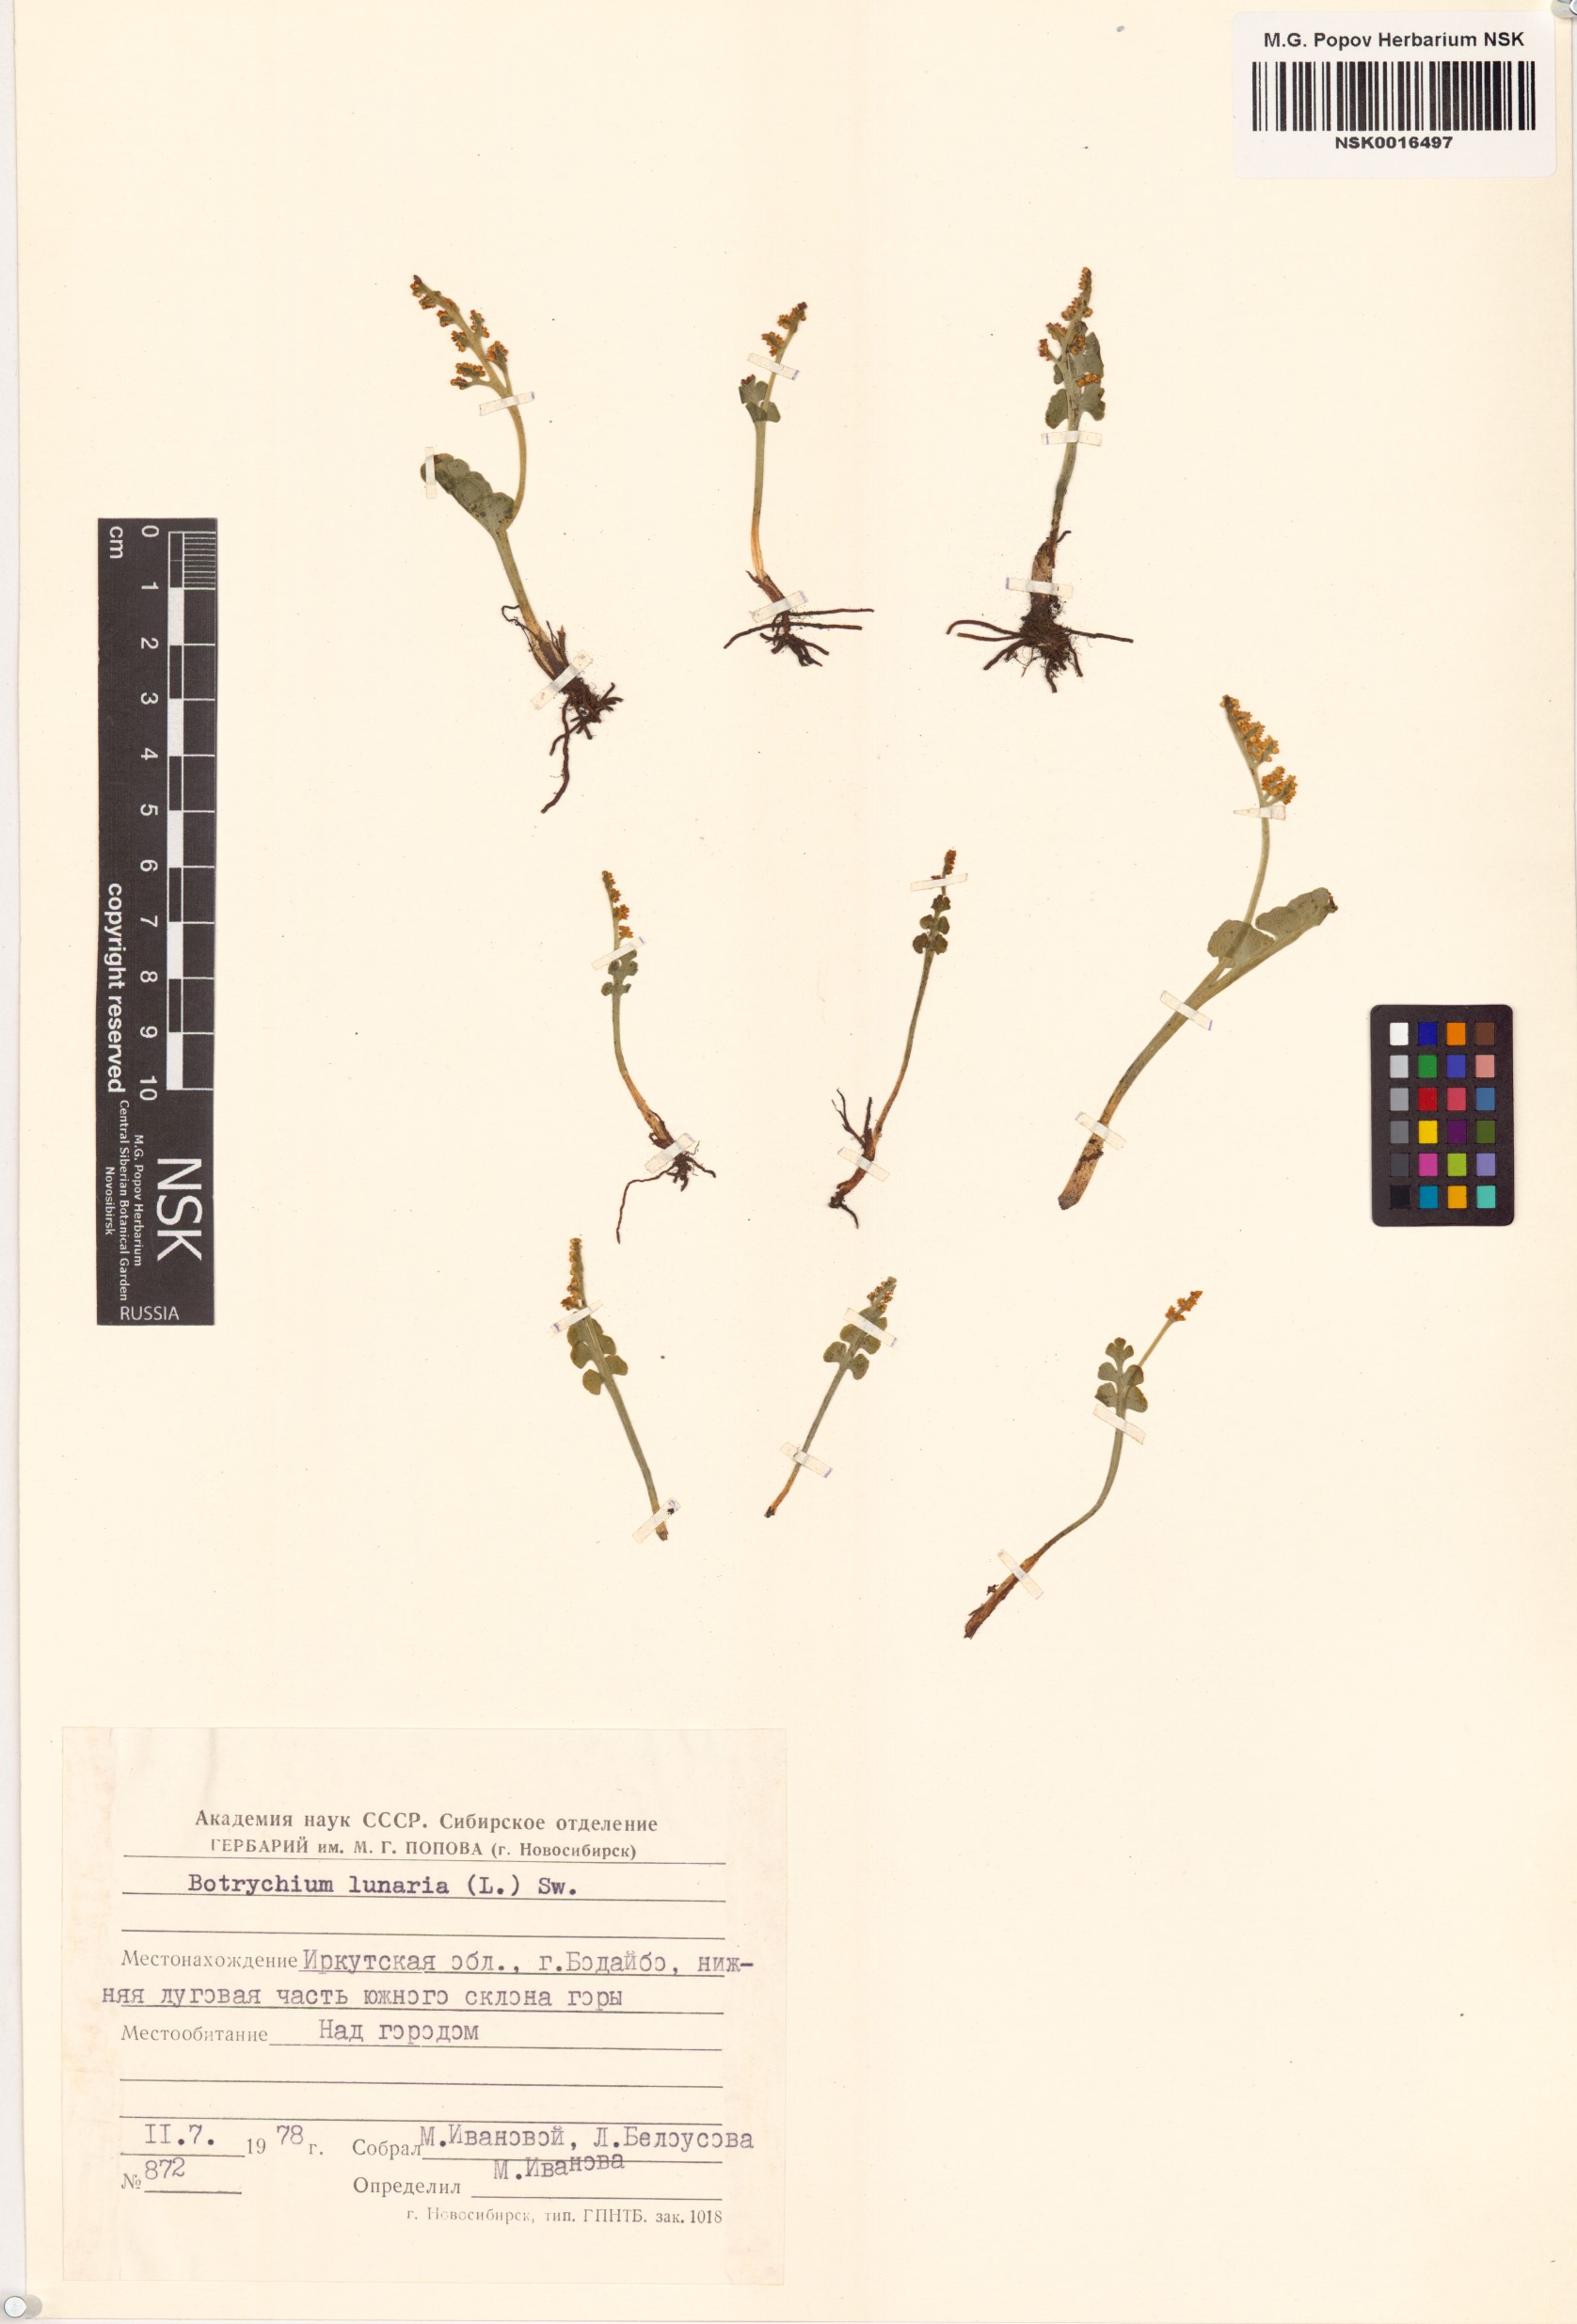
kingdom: Plantae
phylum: Tracheophyta
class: Polypodiopsida
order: Ophioglossales
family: Ophioglossaceae
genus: Botrychium
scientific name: Botrychium lunaria
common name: Moonwort
